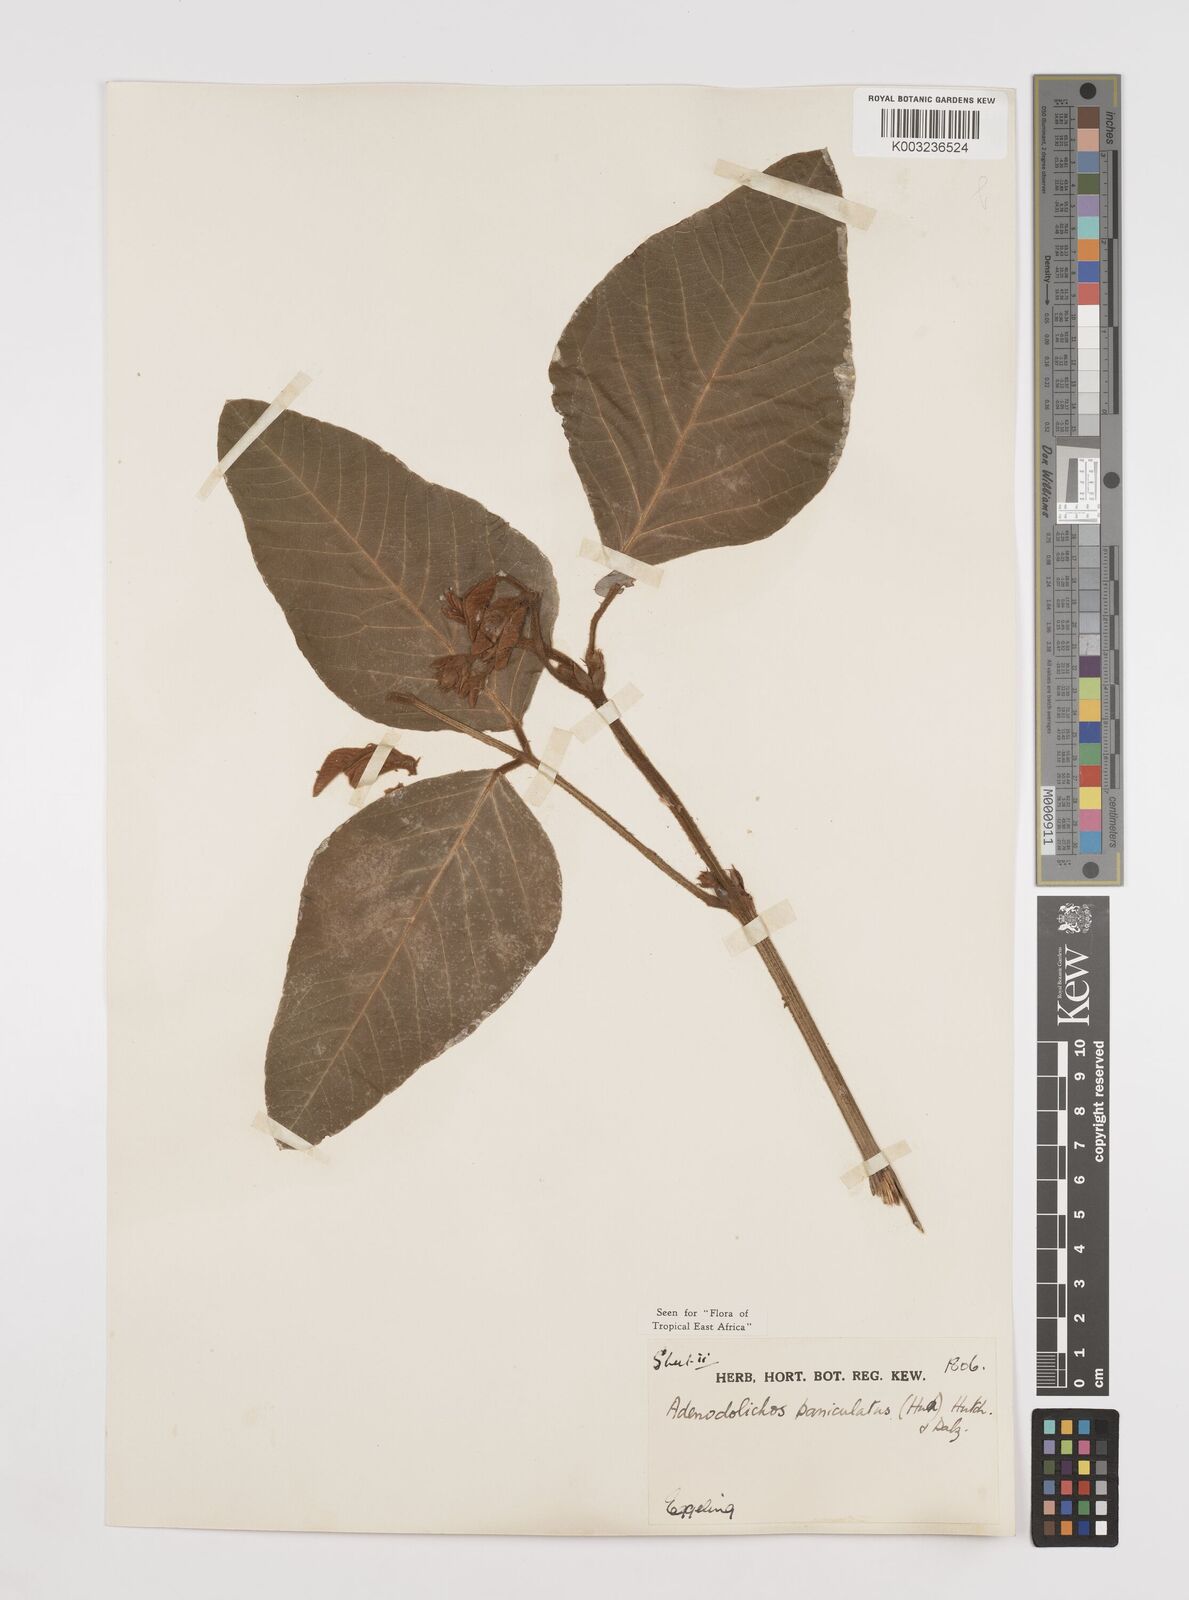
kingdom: Plantae
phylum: Tracheophyta
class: Magnoliopsida
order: Fabales
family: Fabaceae
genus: Adenodolichos
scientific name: Adenodolichos paniculatus
